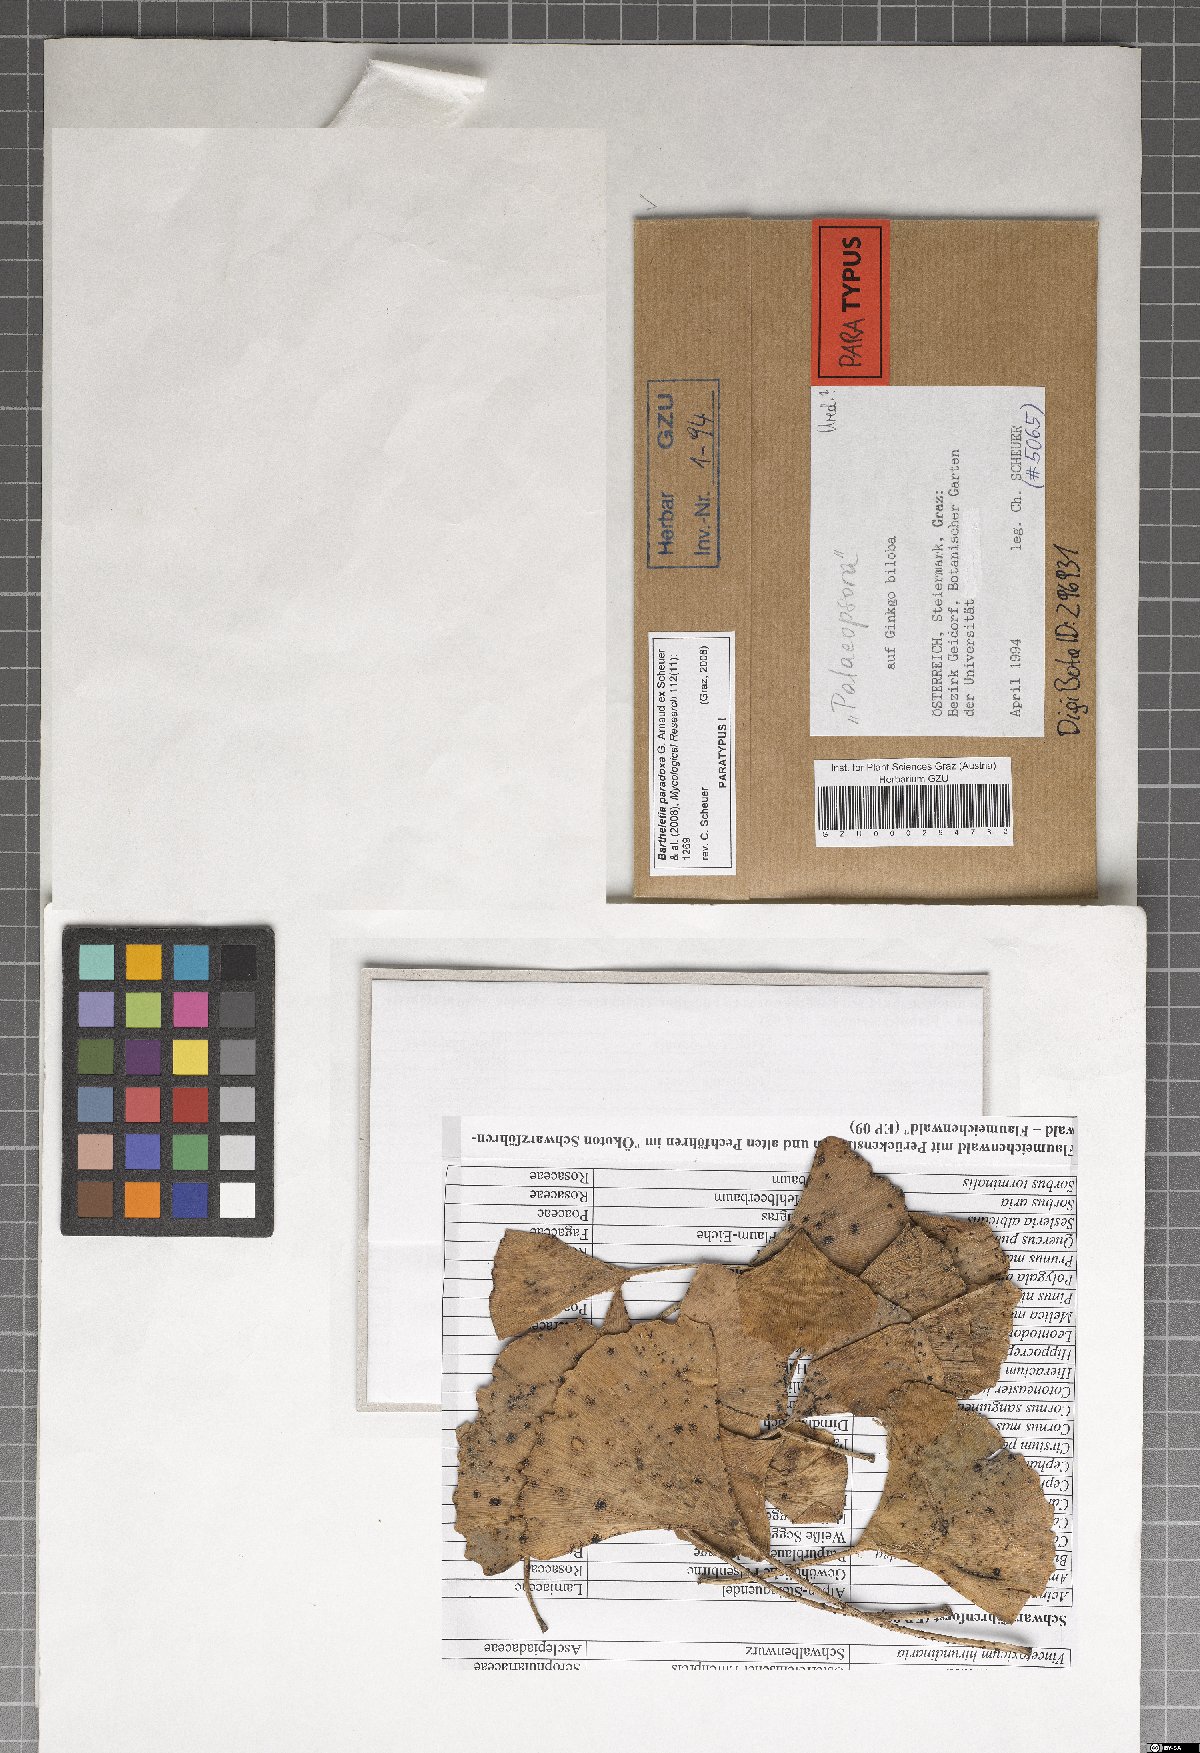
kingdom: Fungi
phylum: Basidiomycota
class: Wallemiomycetes
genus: Bartheletia
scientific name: Bartheletia paradoxa
